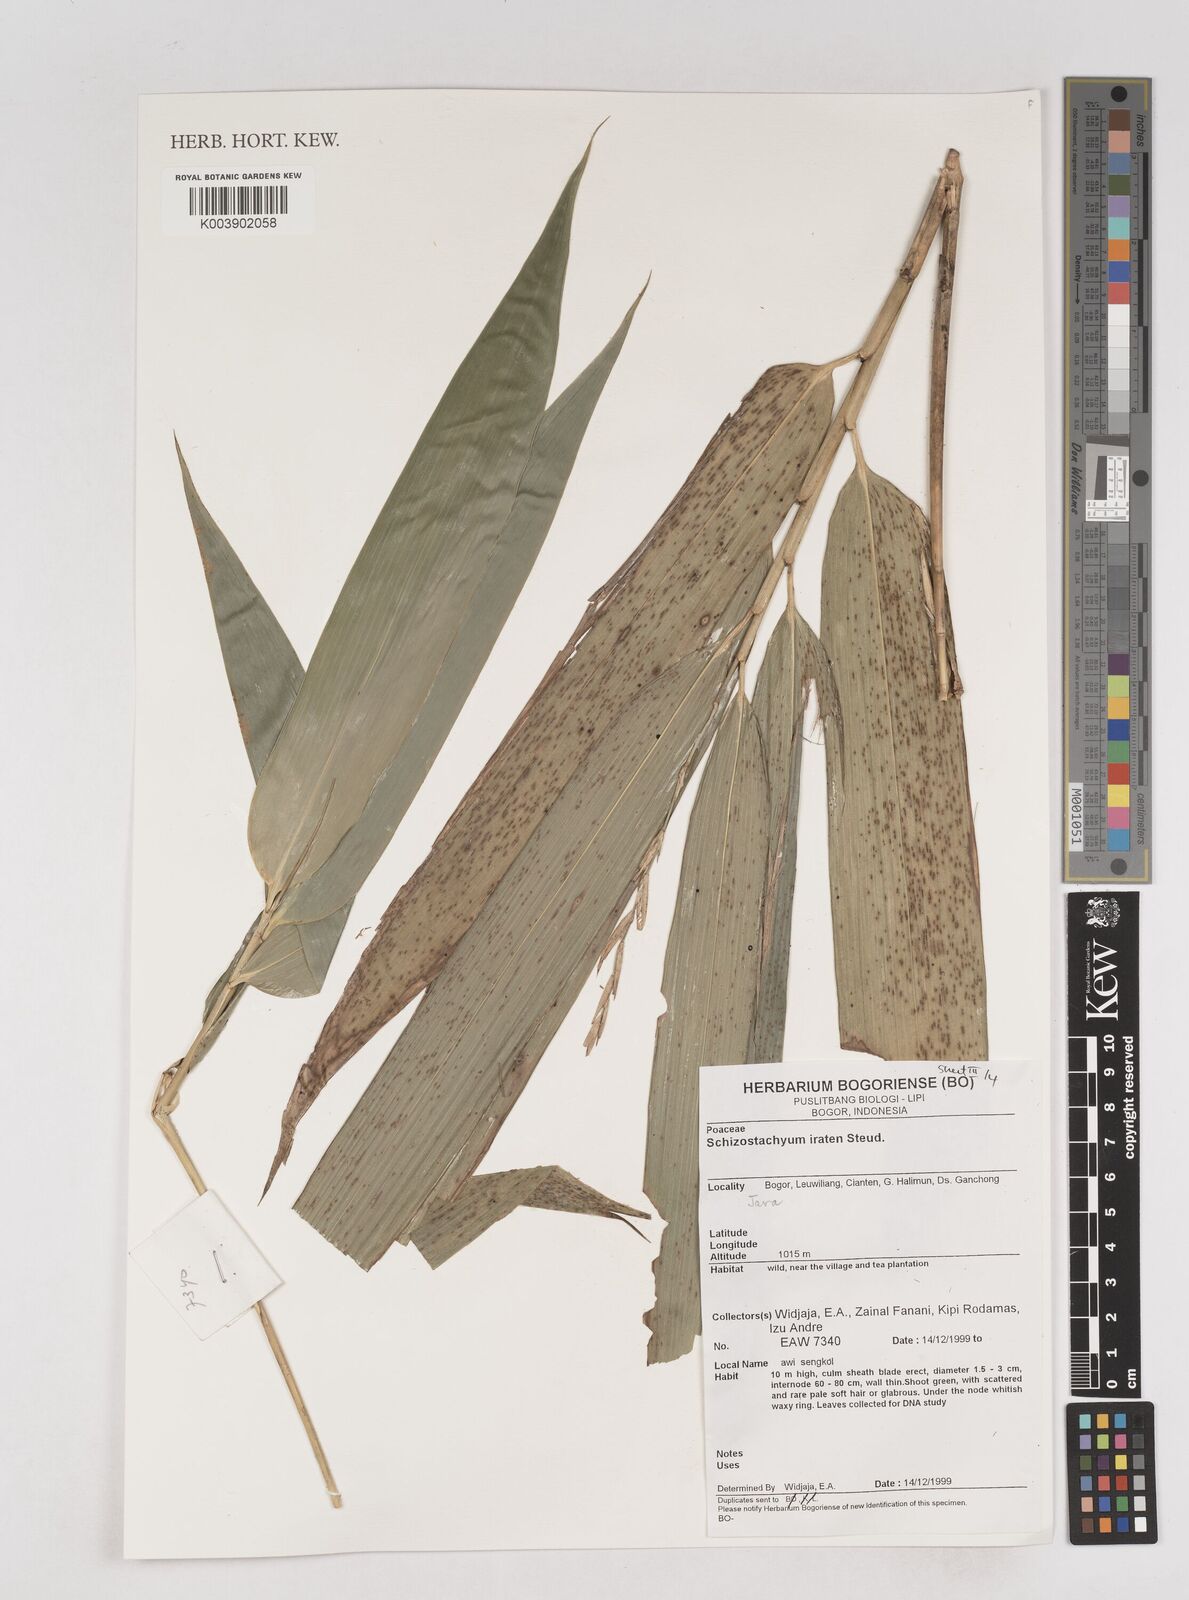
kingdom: Plantae
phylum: Tracheophyta
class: Liliopsida
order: Poales
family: Poaceae
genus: Schizostachyum
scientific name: Schizostachyum iraten
